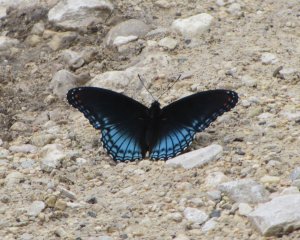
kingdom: Animalia
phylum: Arthropoda
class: Insecta
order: Lepidoptera
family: Nymphalidae
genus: Limenitis
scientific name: Limenitis astyanax
